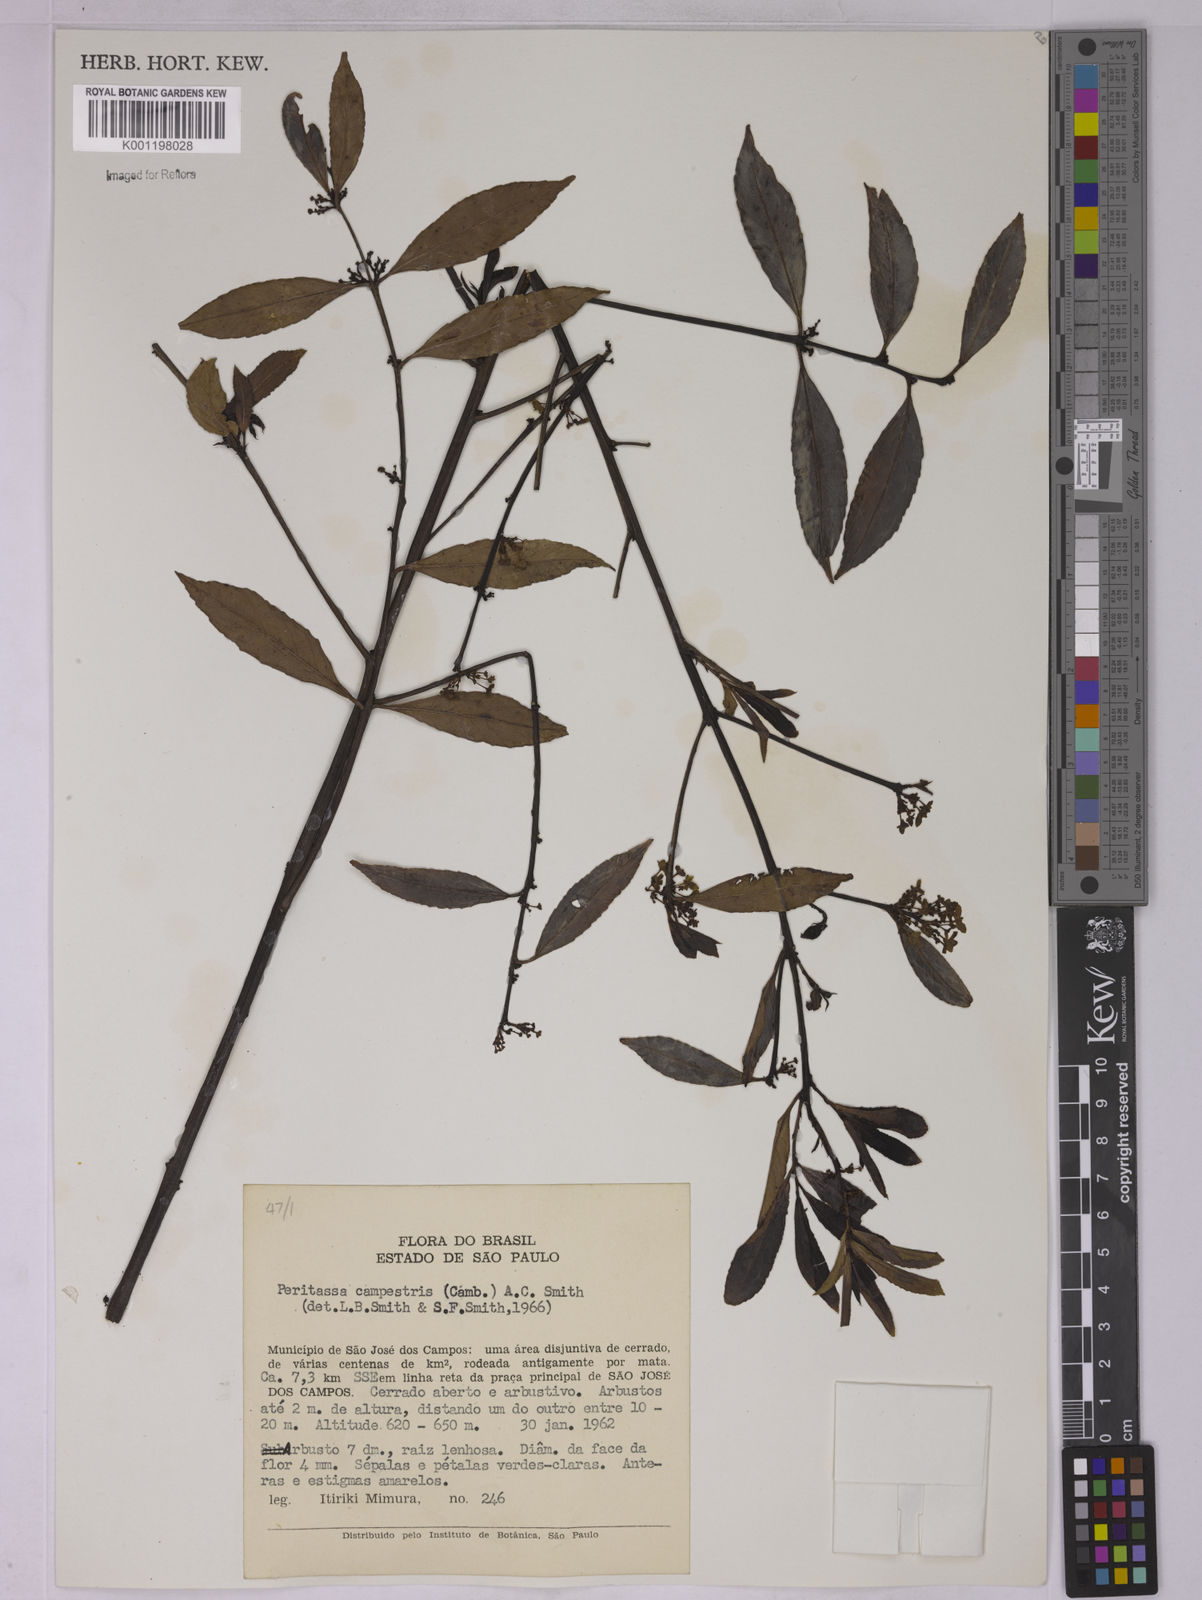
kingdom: Plantae
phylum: Tracheophyta
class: Magnoliopsida
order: Celastrales
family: Celastraceae
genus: Peritassa
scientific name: Peritassa campestris
